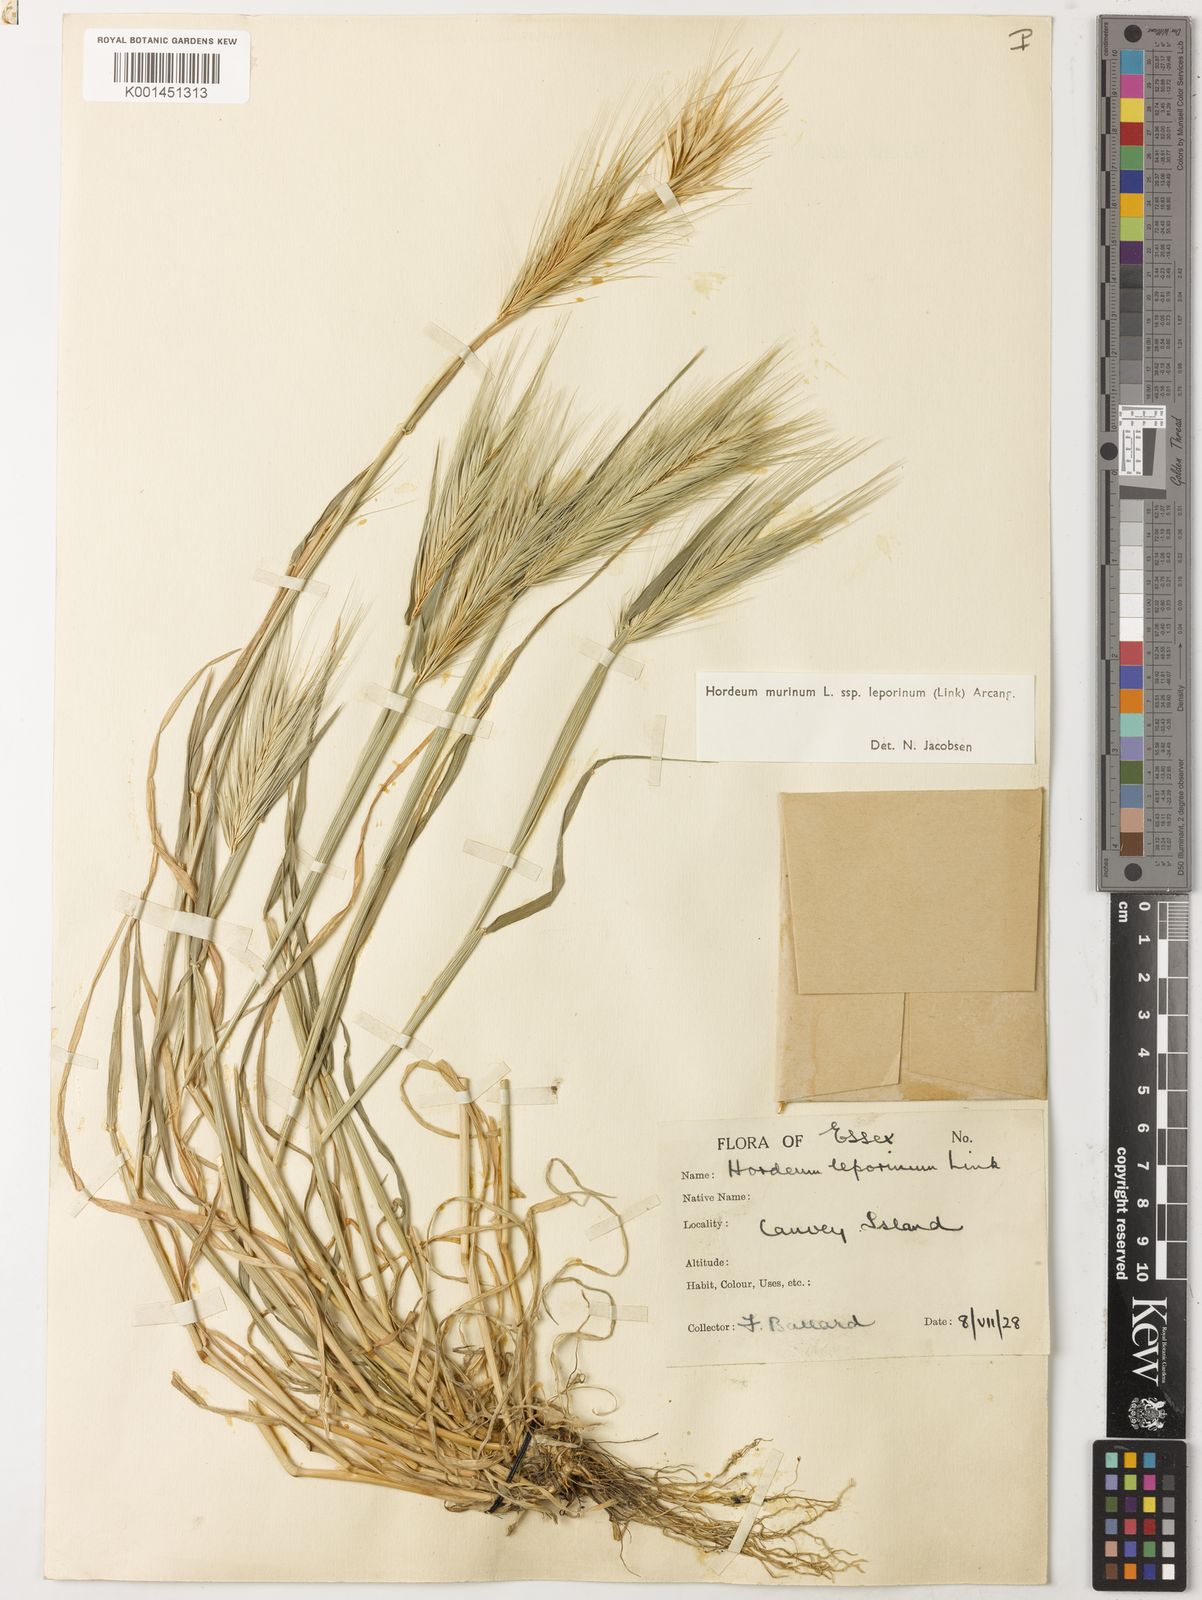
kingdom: Plantae
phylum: Tracheophyta
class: Liliopsida
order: Poales
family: Poaceae
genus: Hordeum
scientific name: Hordeum murinum
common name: Wall barley
